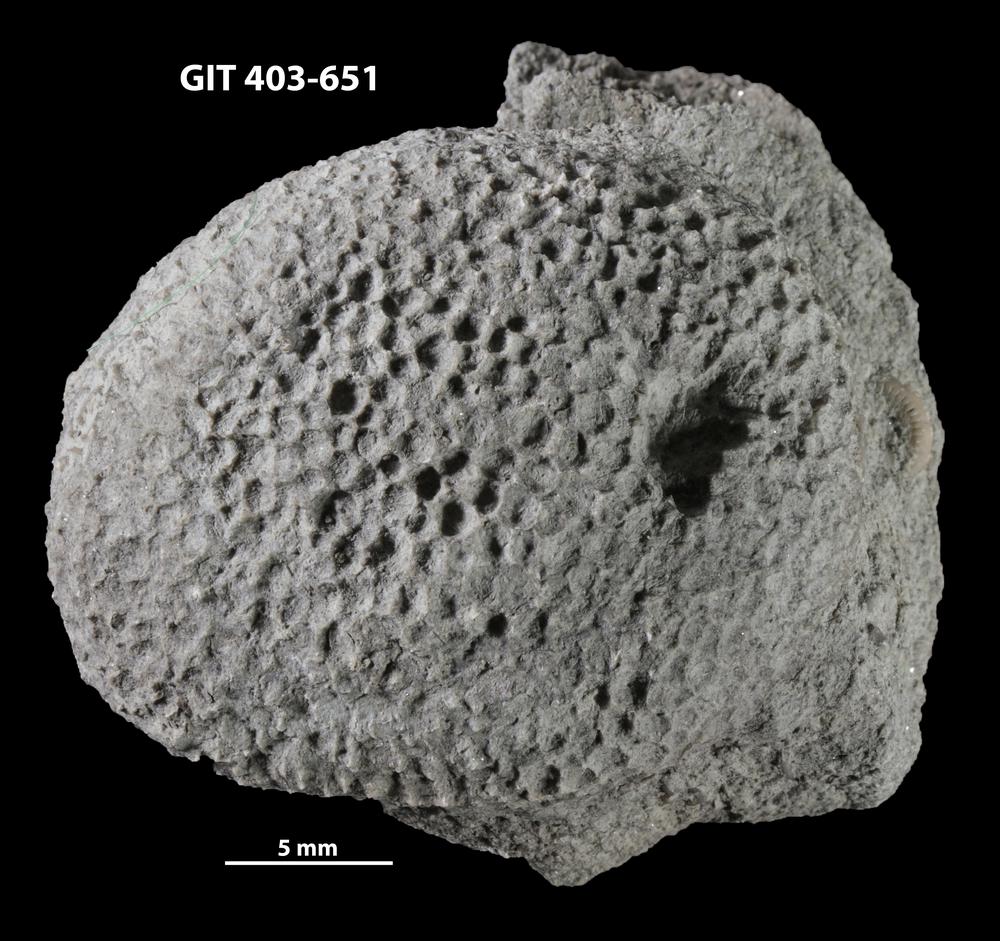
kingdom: Animalia
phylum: Cnidaria
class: Anthozoa
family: Favositidae
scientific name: Favositidae
